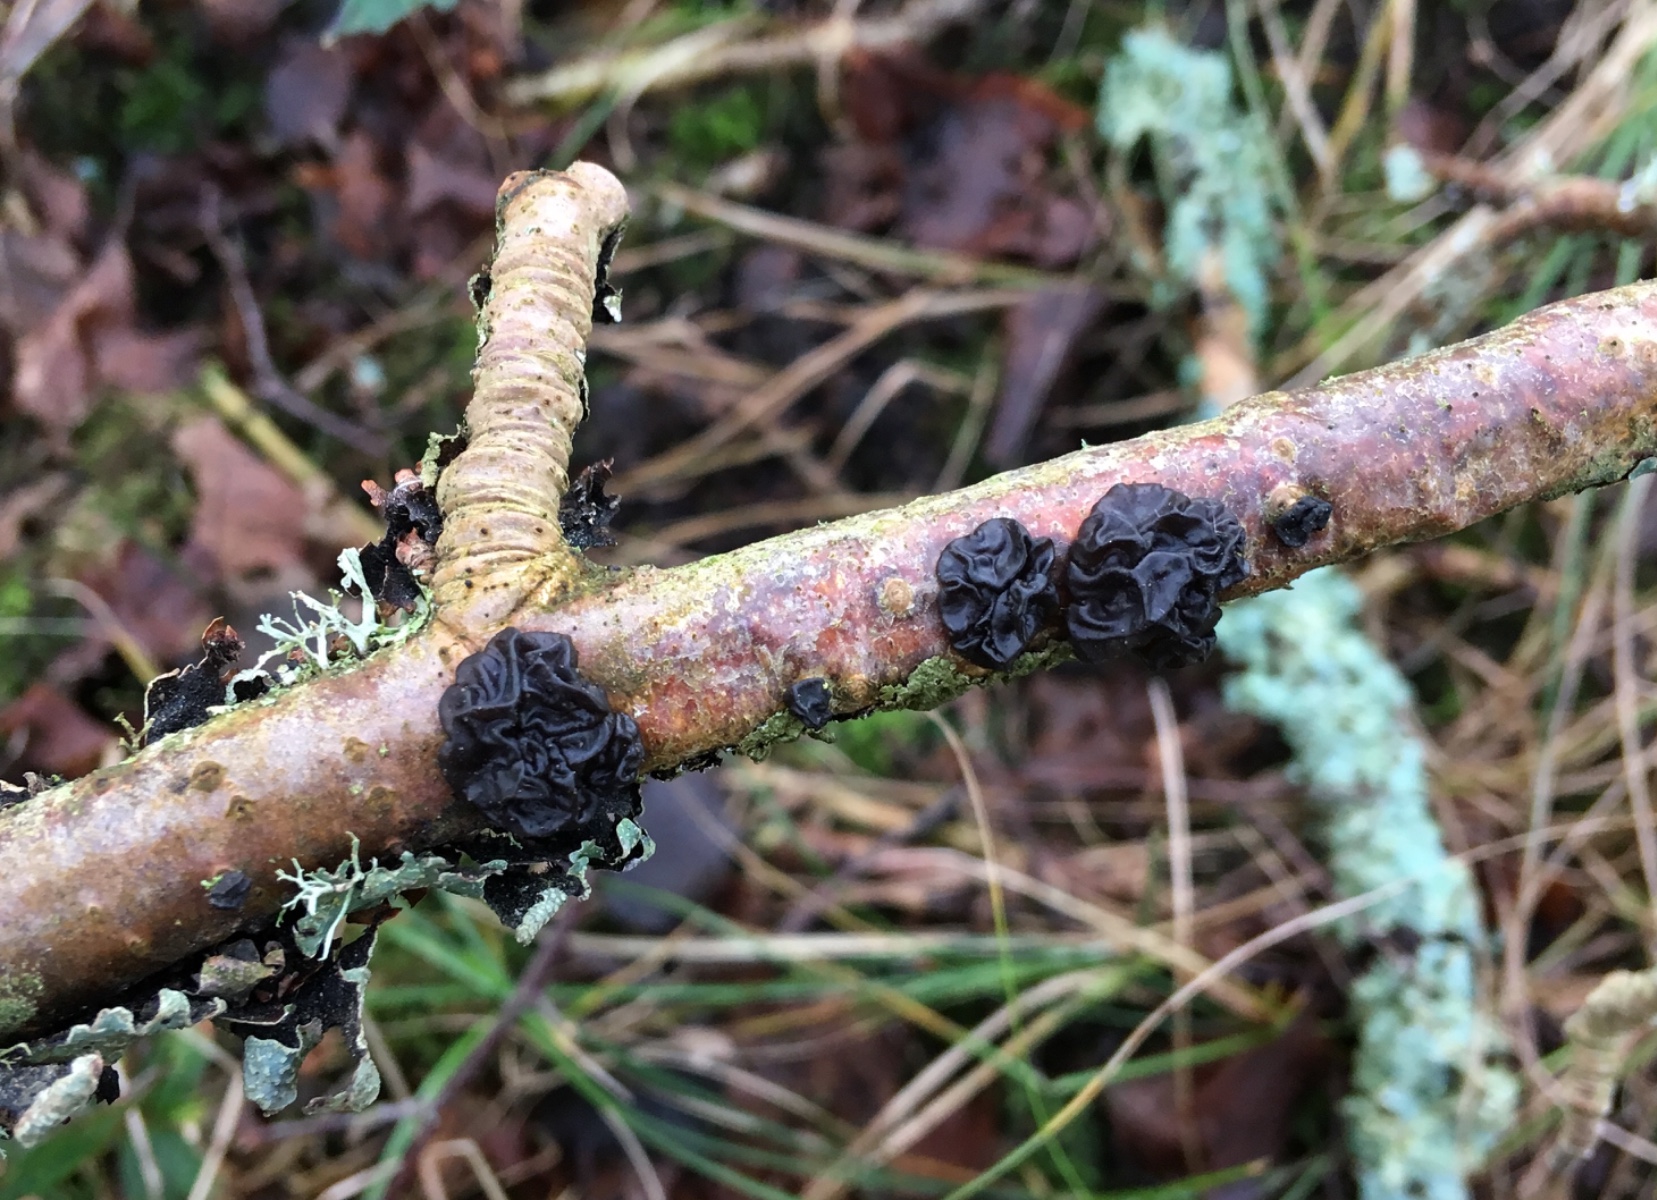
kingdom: Fungi
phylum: Basidiomycota
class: Agaricomycetes
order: Auriculariales
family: Auriculariaceae
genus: Exidia
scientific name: Exidia nigricans
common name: almindelig bævretop
